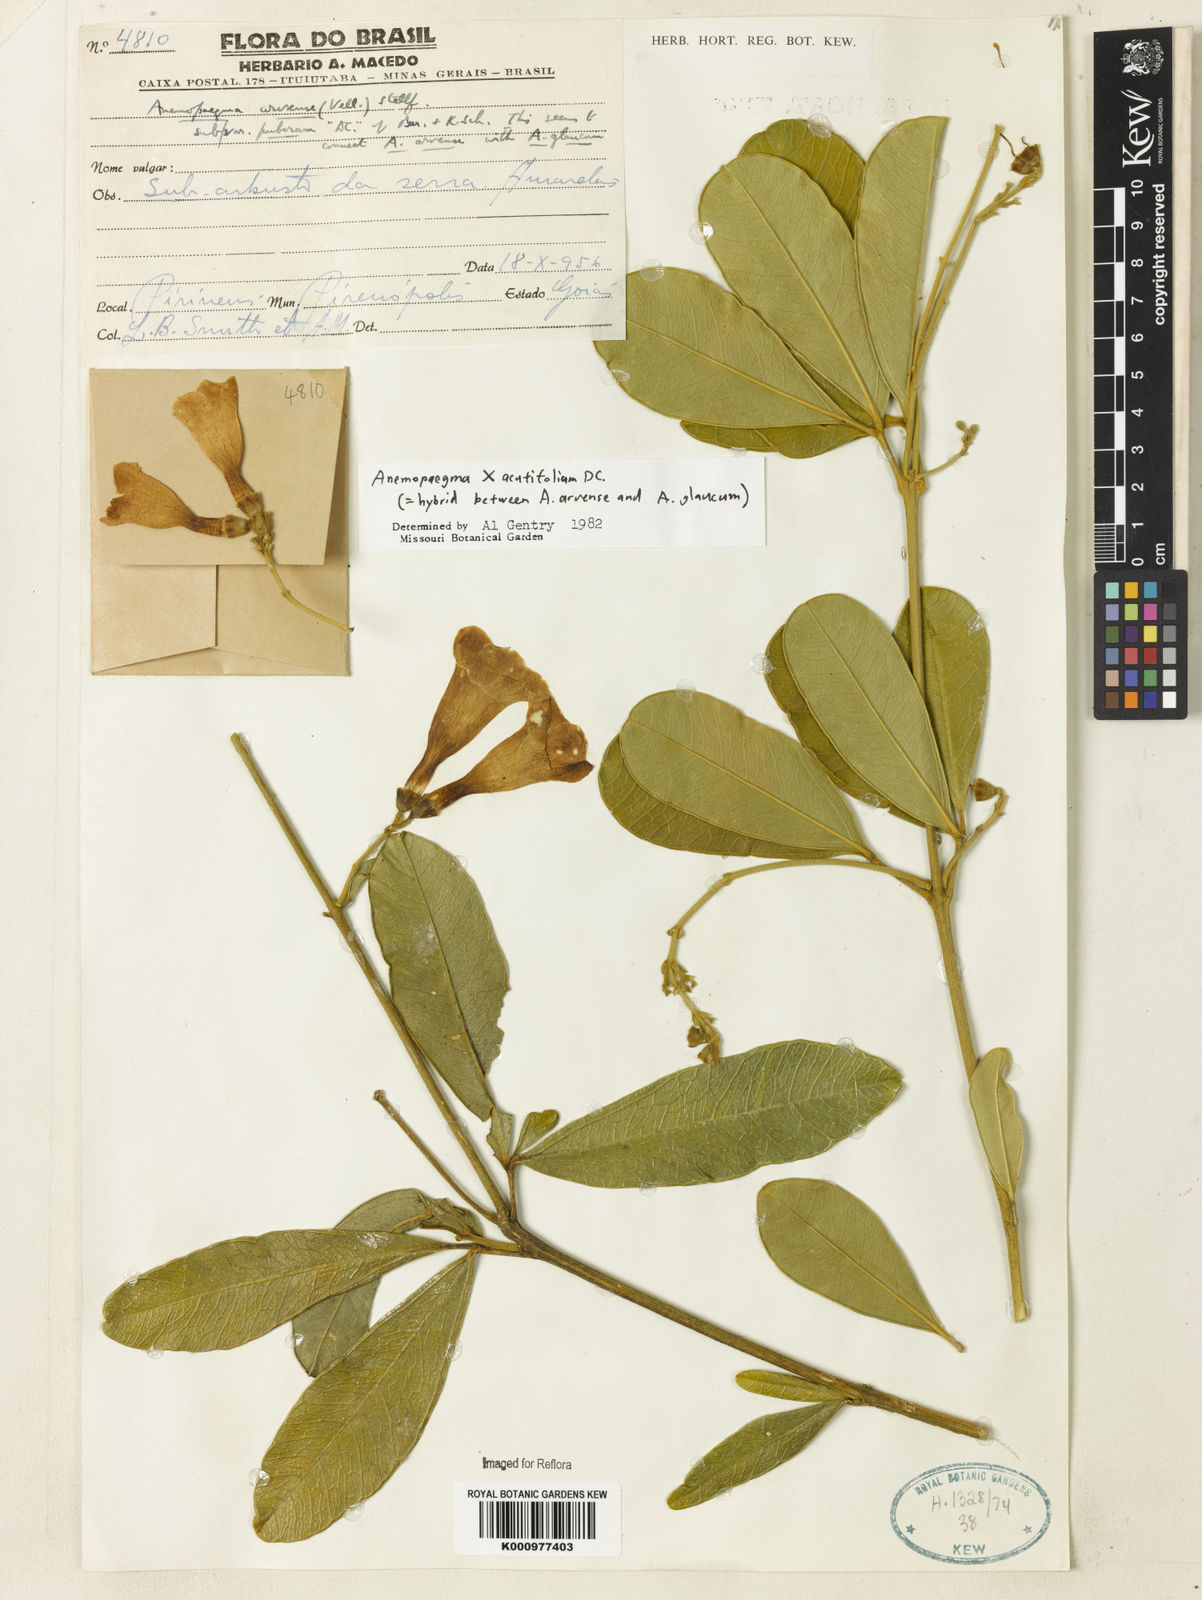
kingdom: Plantae
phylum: Tracheophyta
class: Magnoliopsida
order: Lamiales
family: Bignoniaceae
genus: Anemopaegma
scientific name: Anemopaegma
